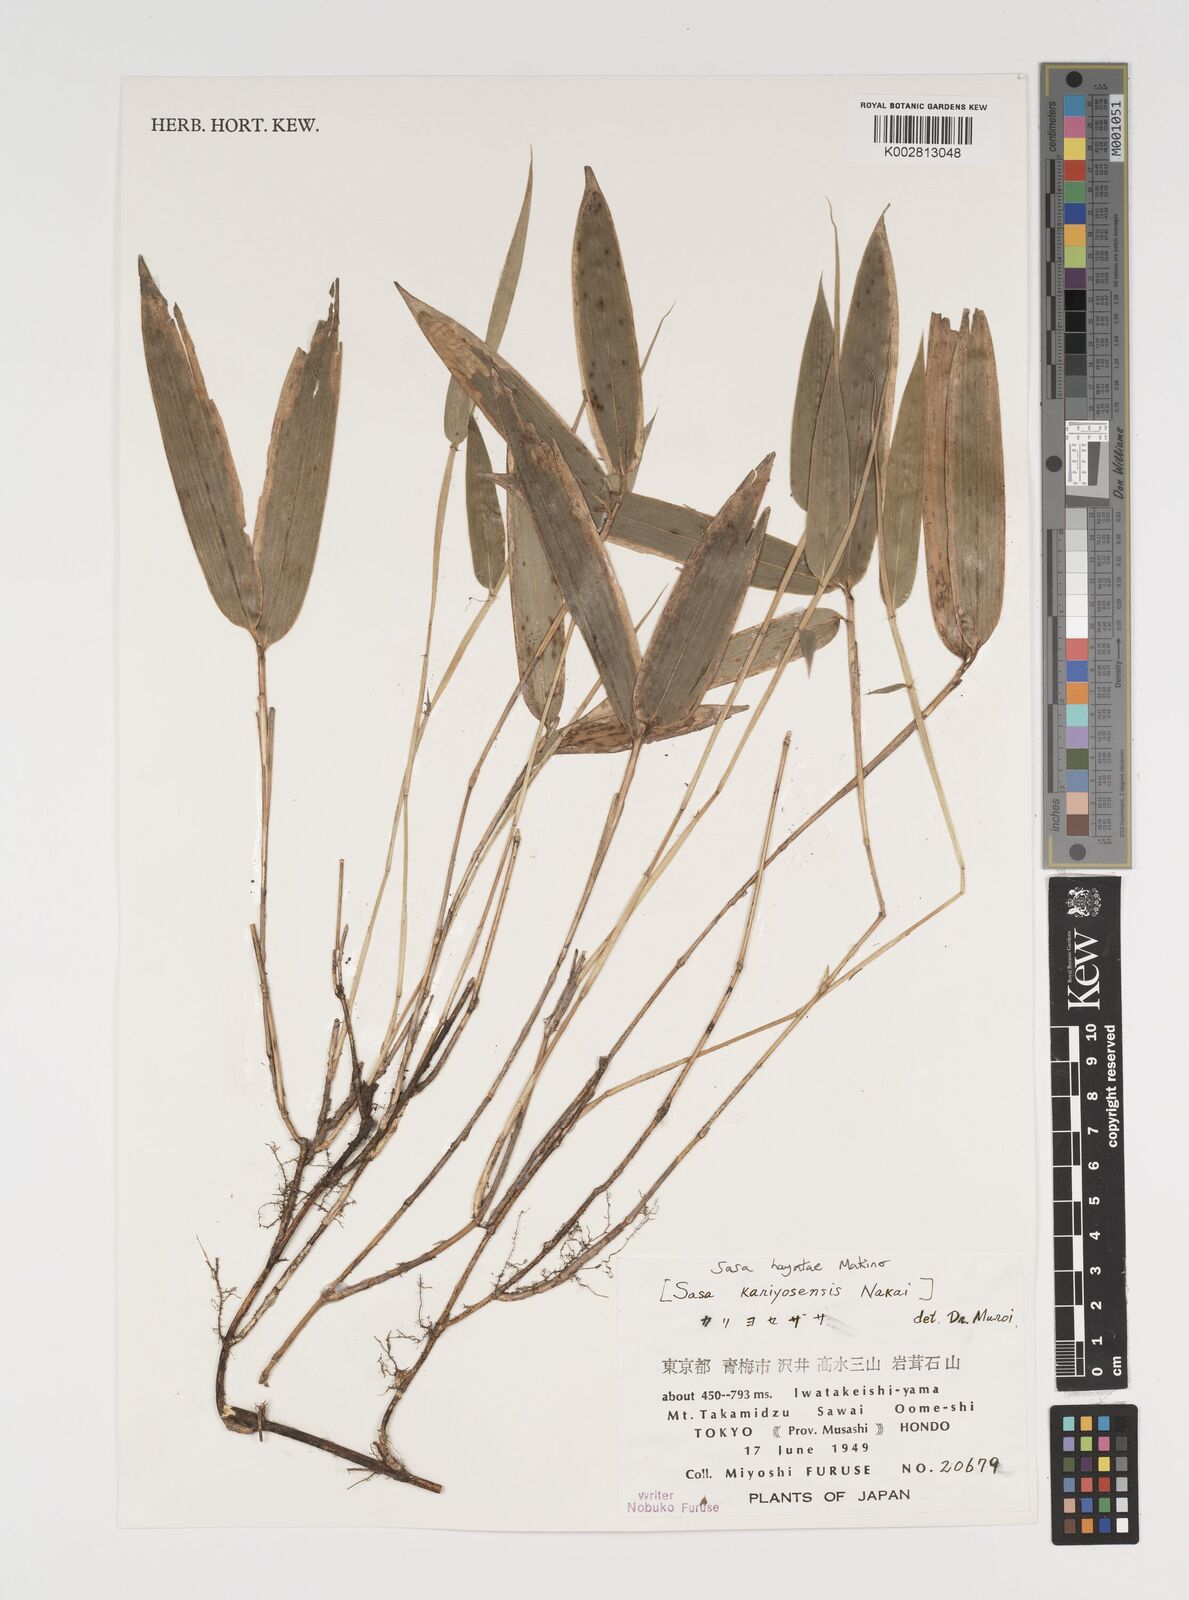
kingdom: Plantae
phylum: Tracheophyta
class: Liliopsida
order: Poales
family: Poaceae
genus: Sasa
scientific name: Sasa hayatae
